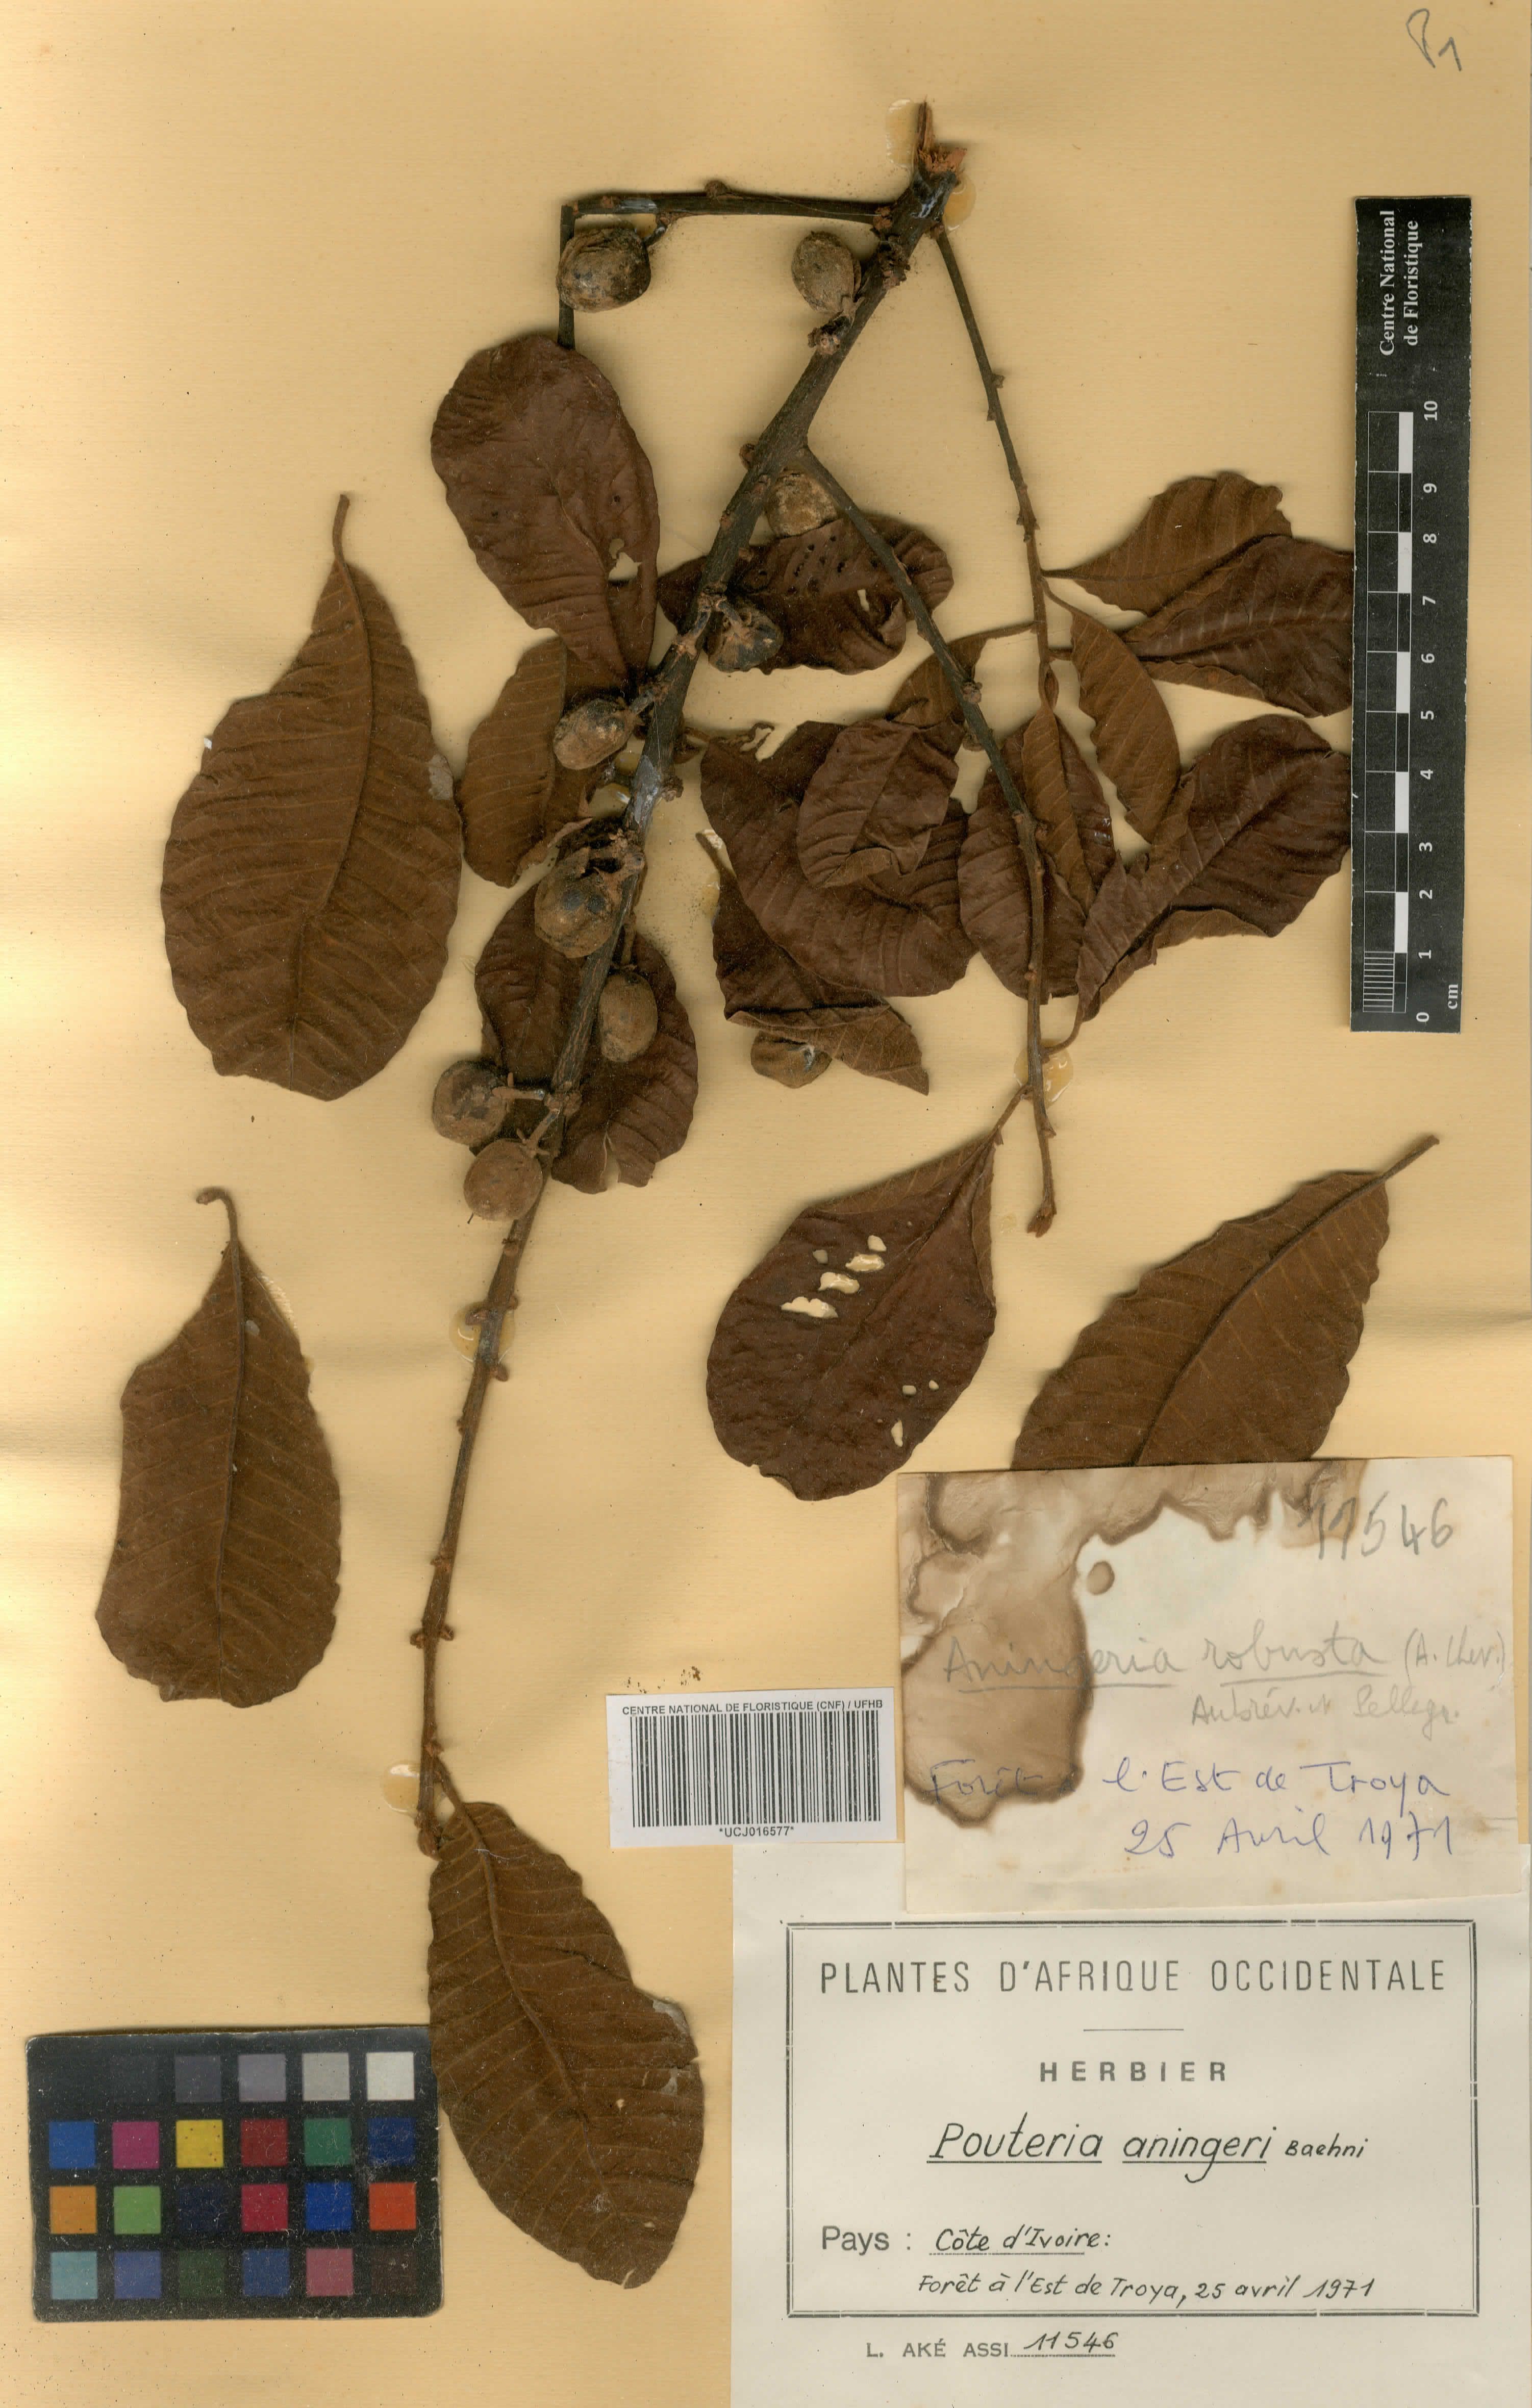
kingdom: Plantae
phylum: Tracheophyta
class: Magnoliopsida
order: Ericales
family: Sapotaceae
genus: Aningeria
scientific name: Aningeria pierrei
